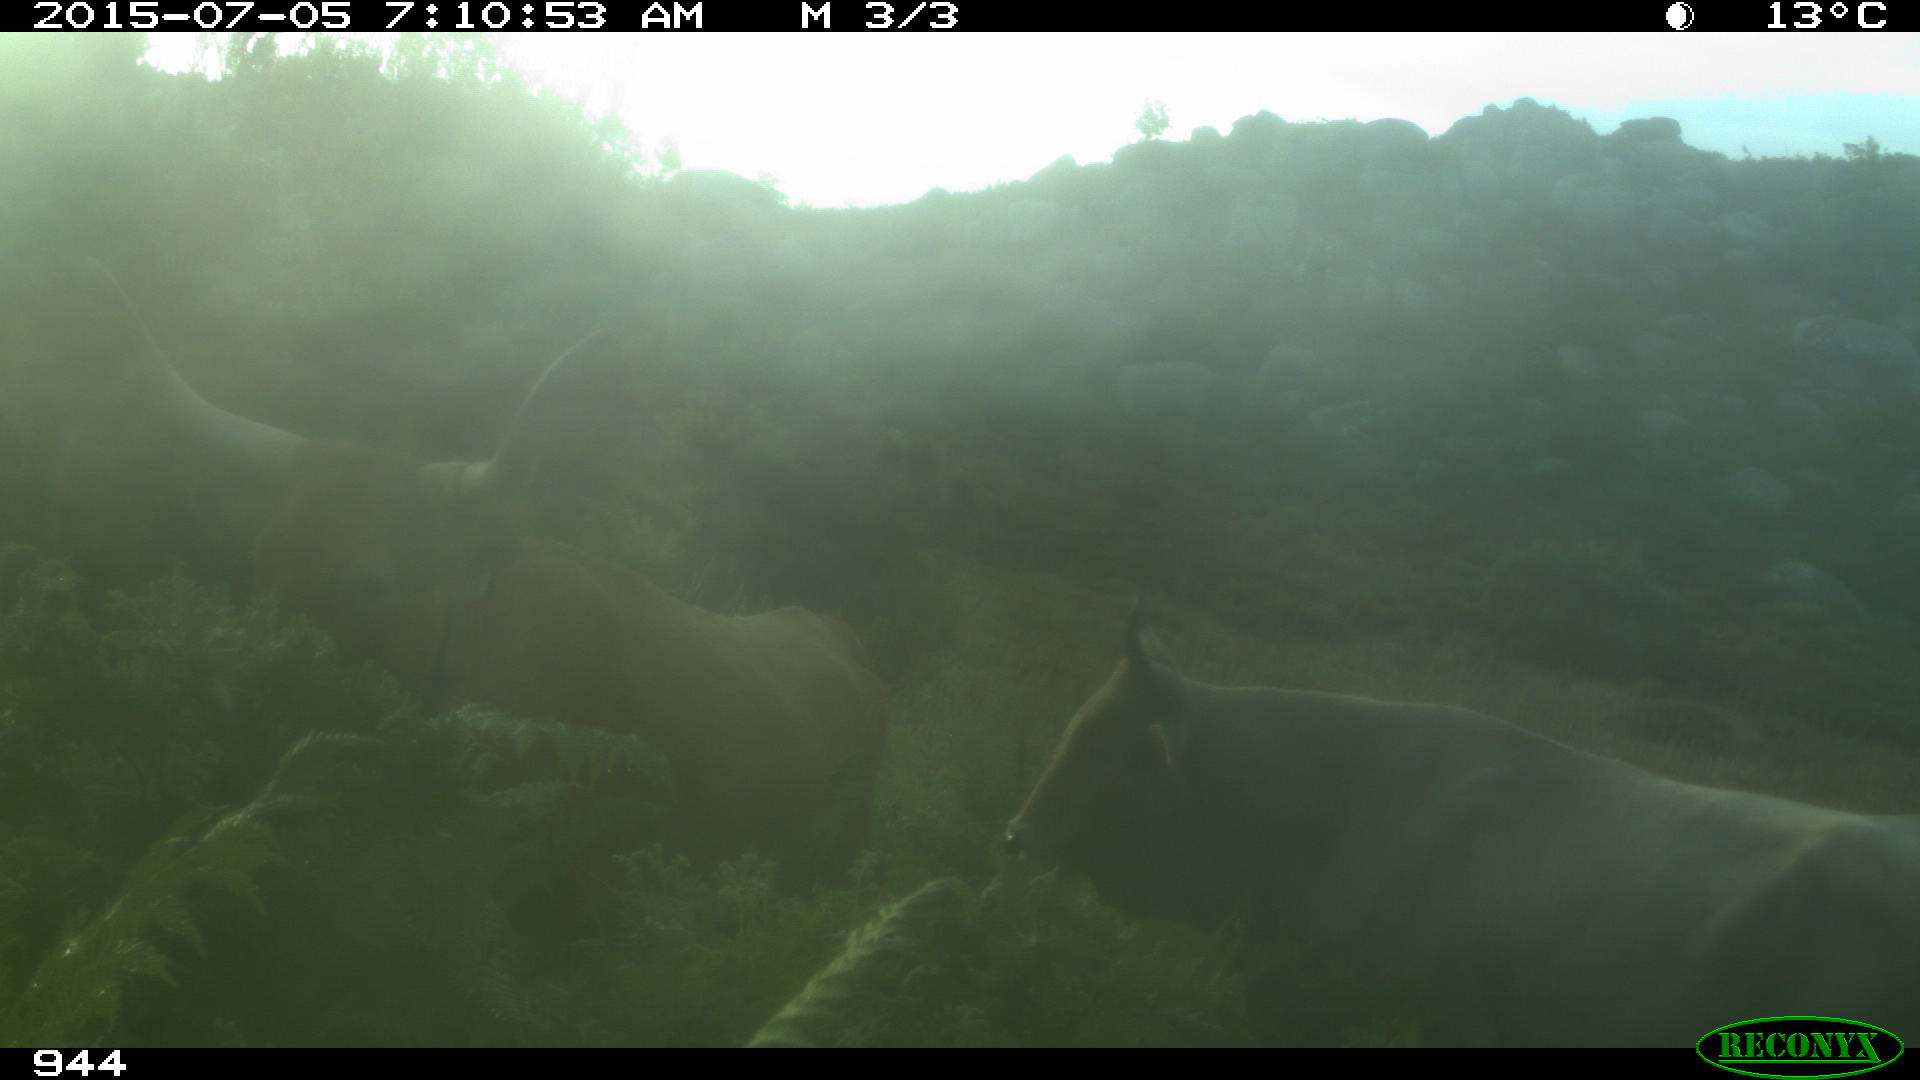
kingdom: Animalia
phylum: Chordata
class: Mammalia
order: Artiodactyla
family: Bovidae
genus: Bos
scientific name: Bos taurus
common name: Domesticated cattle
